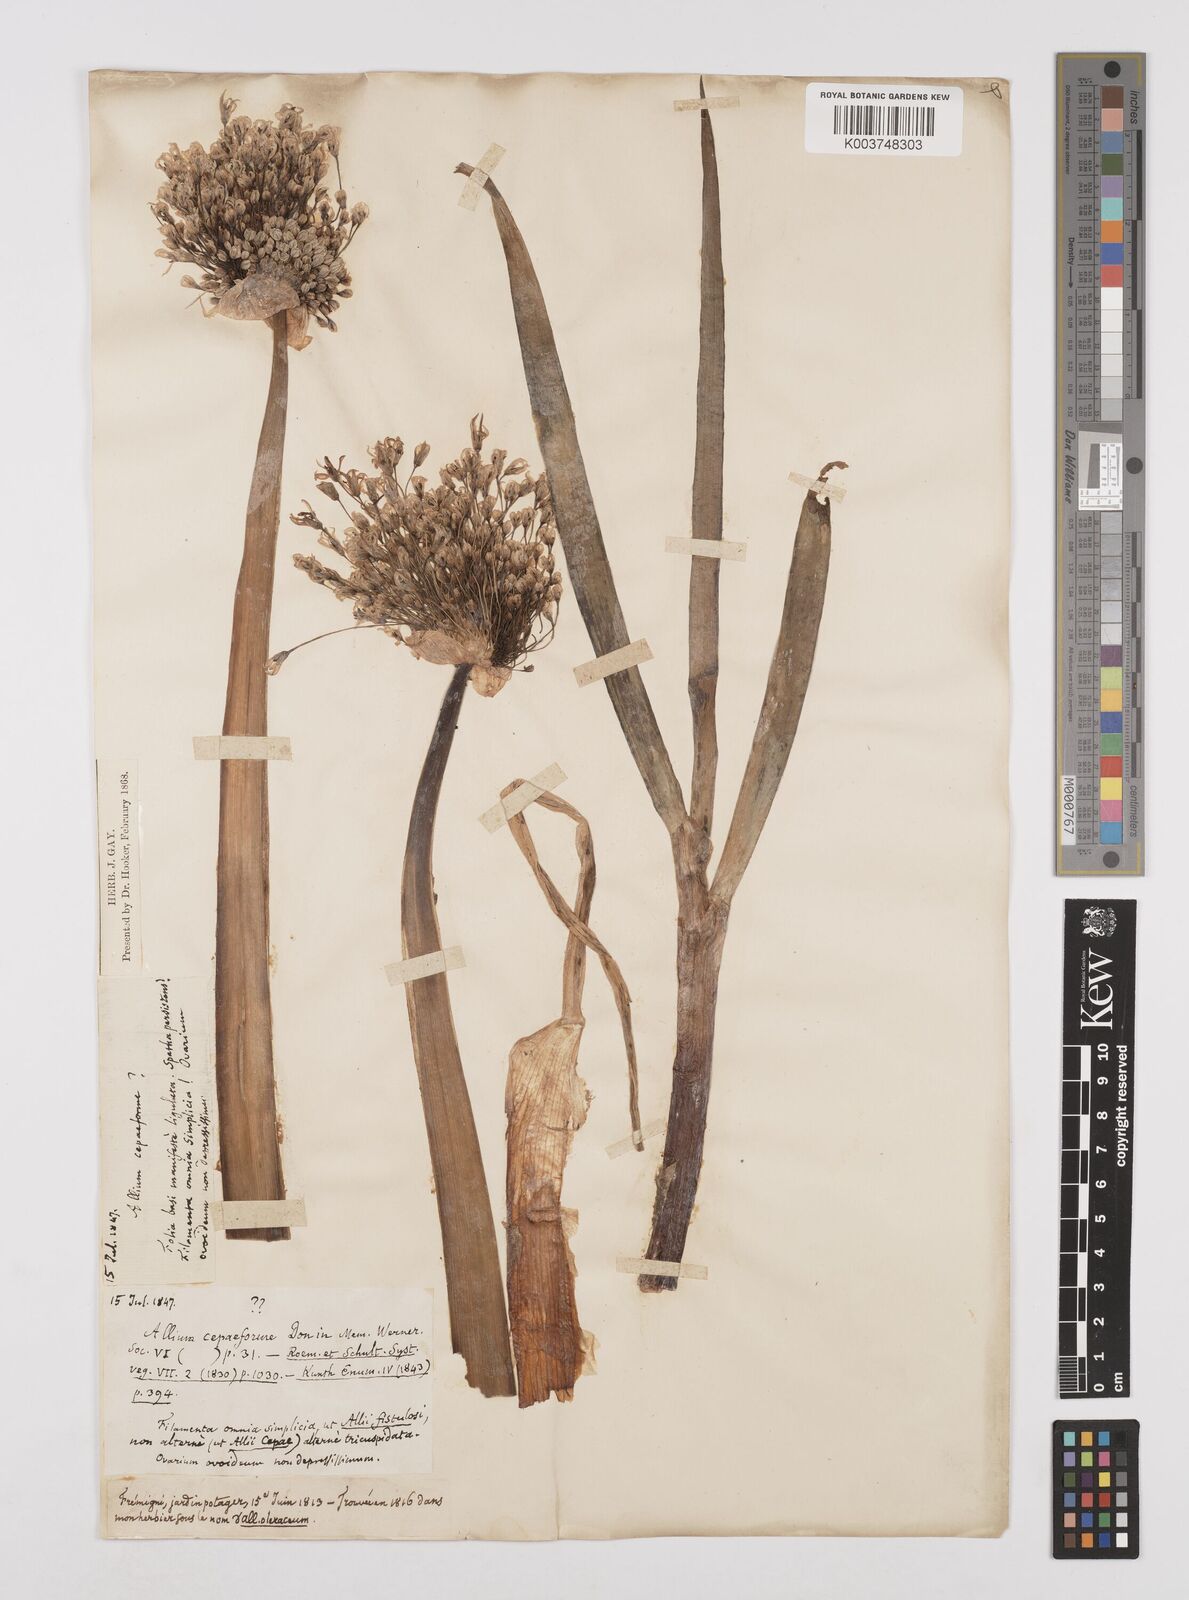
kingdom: Plantae
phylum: Tracheophyta
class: Liliopsida
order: Asparagales
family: Amaryllidaceae
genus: Allium
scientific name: Allium cepa
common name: Onion
